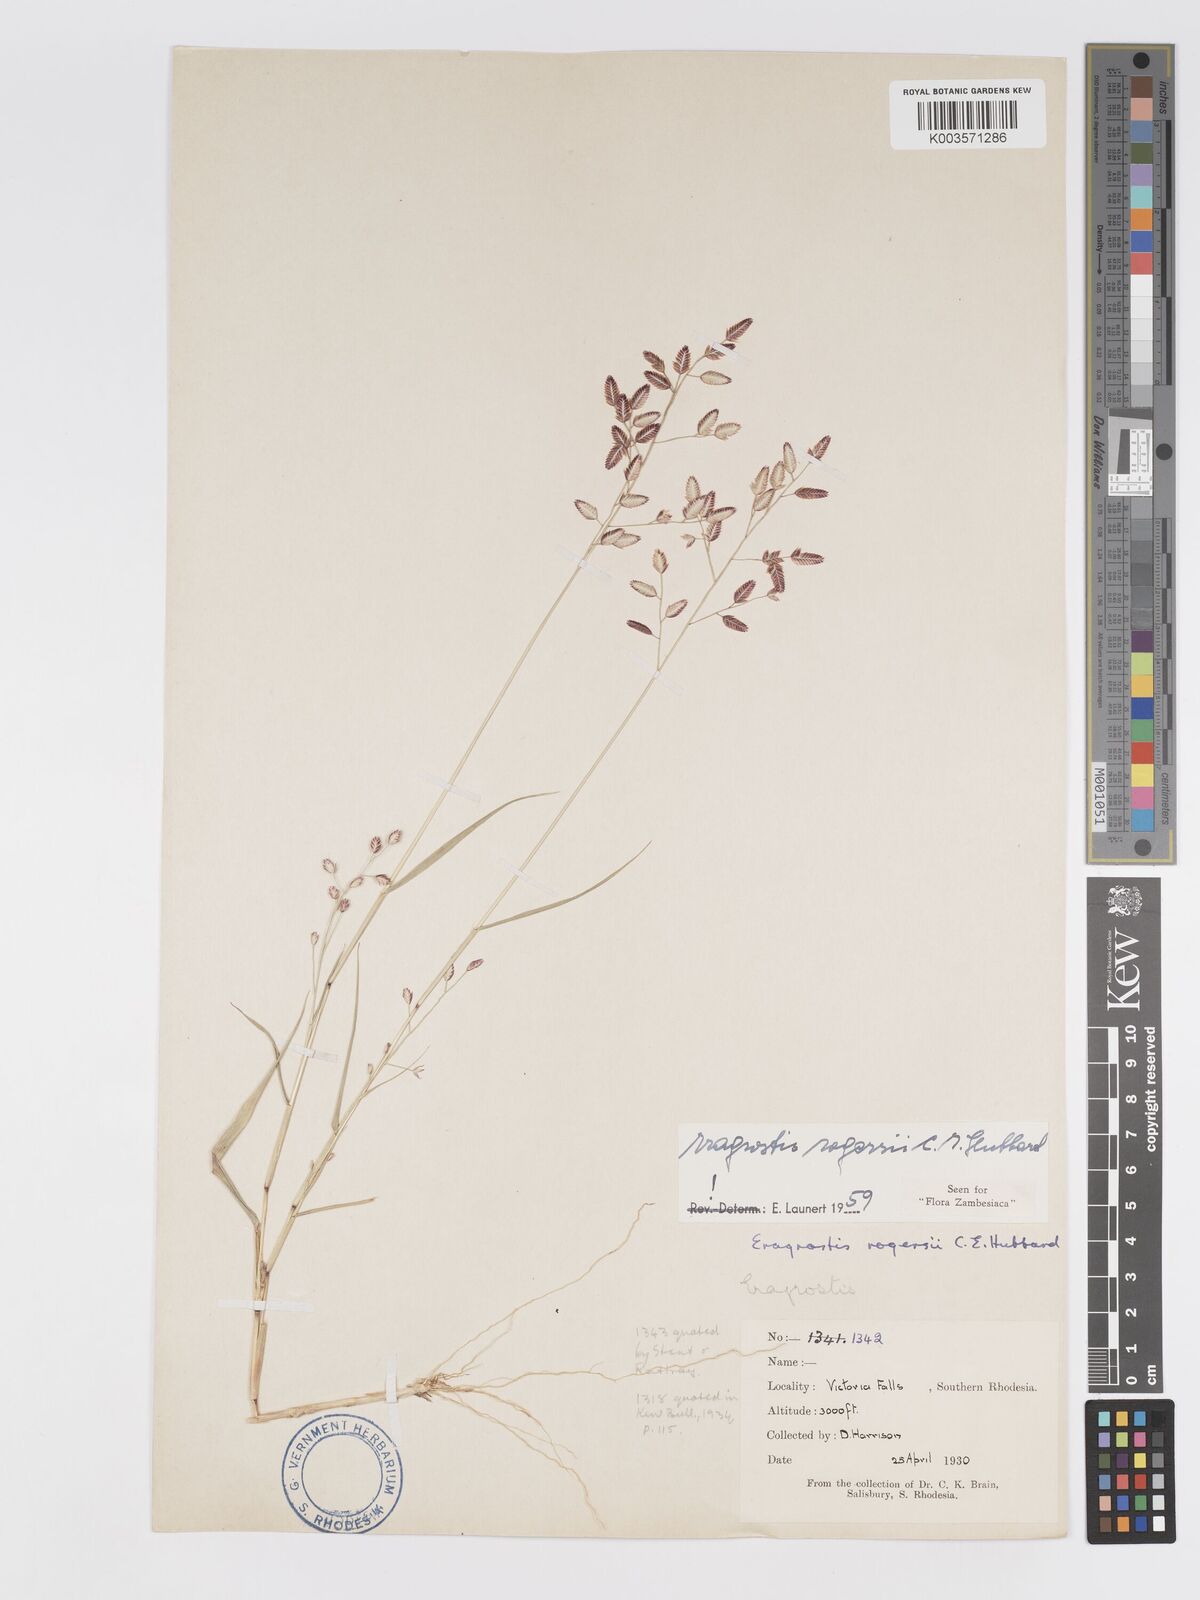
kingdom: Plantae
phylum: Tracheophyta
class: Liliopsida
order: Poales
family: Poaceae
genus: Eragrostis
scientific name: Eragrostis rogersii
